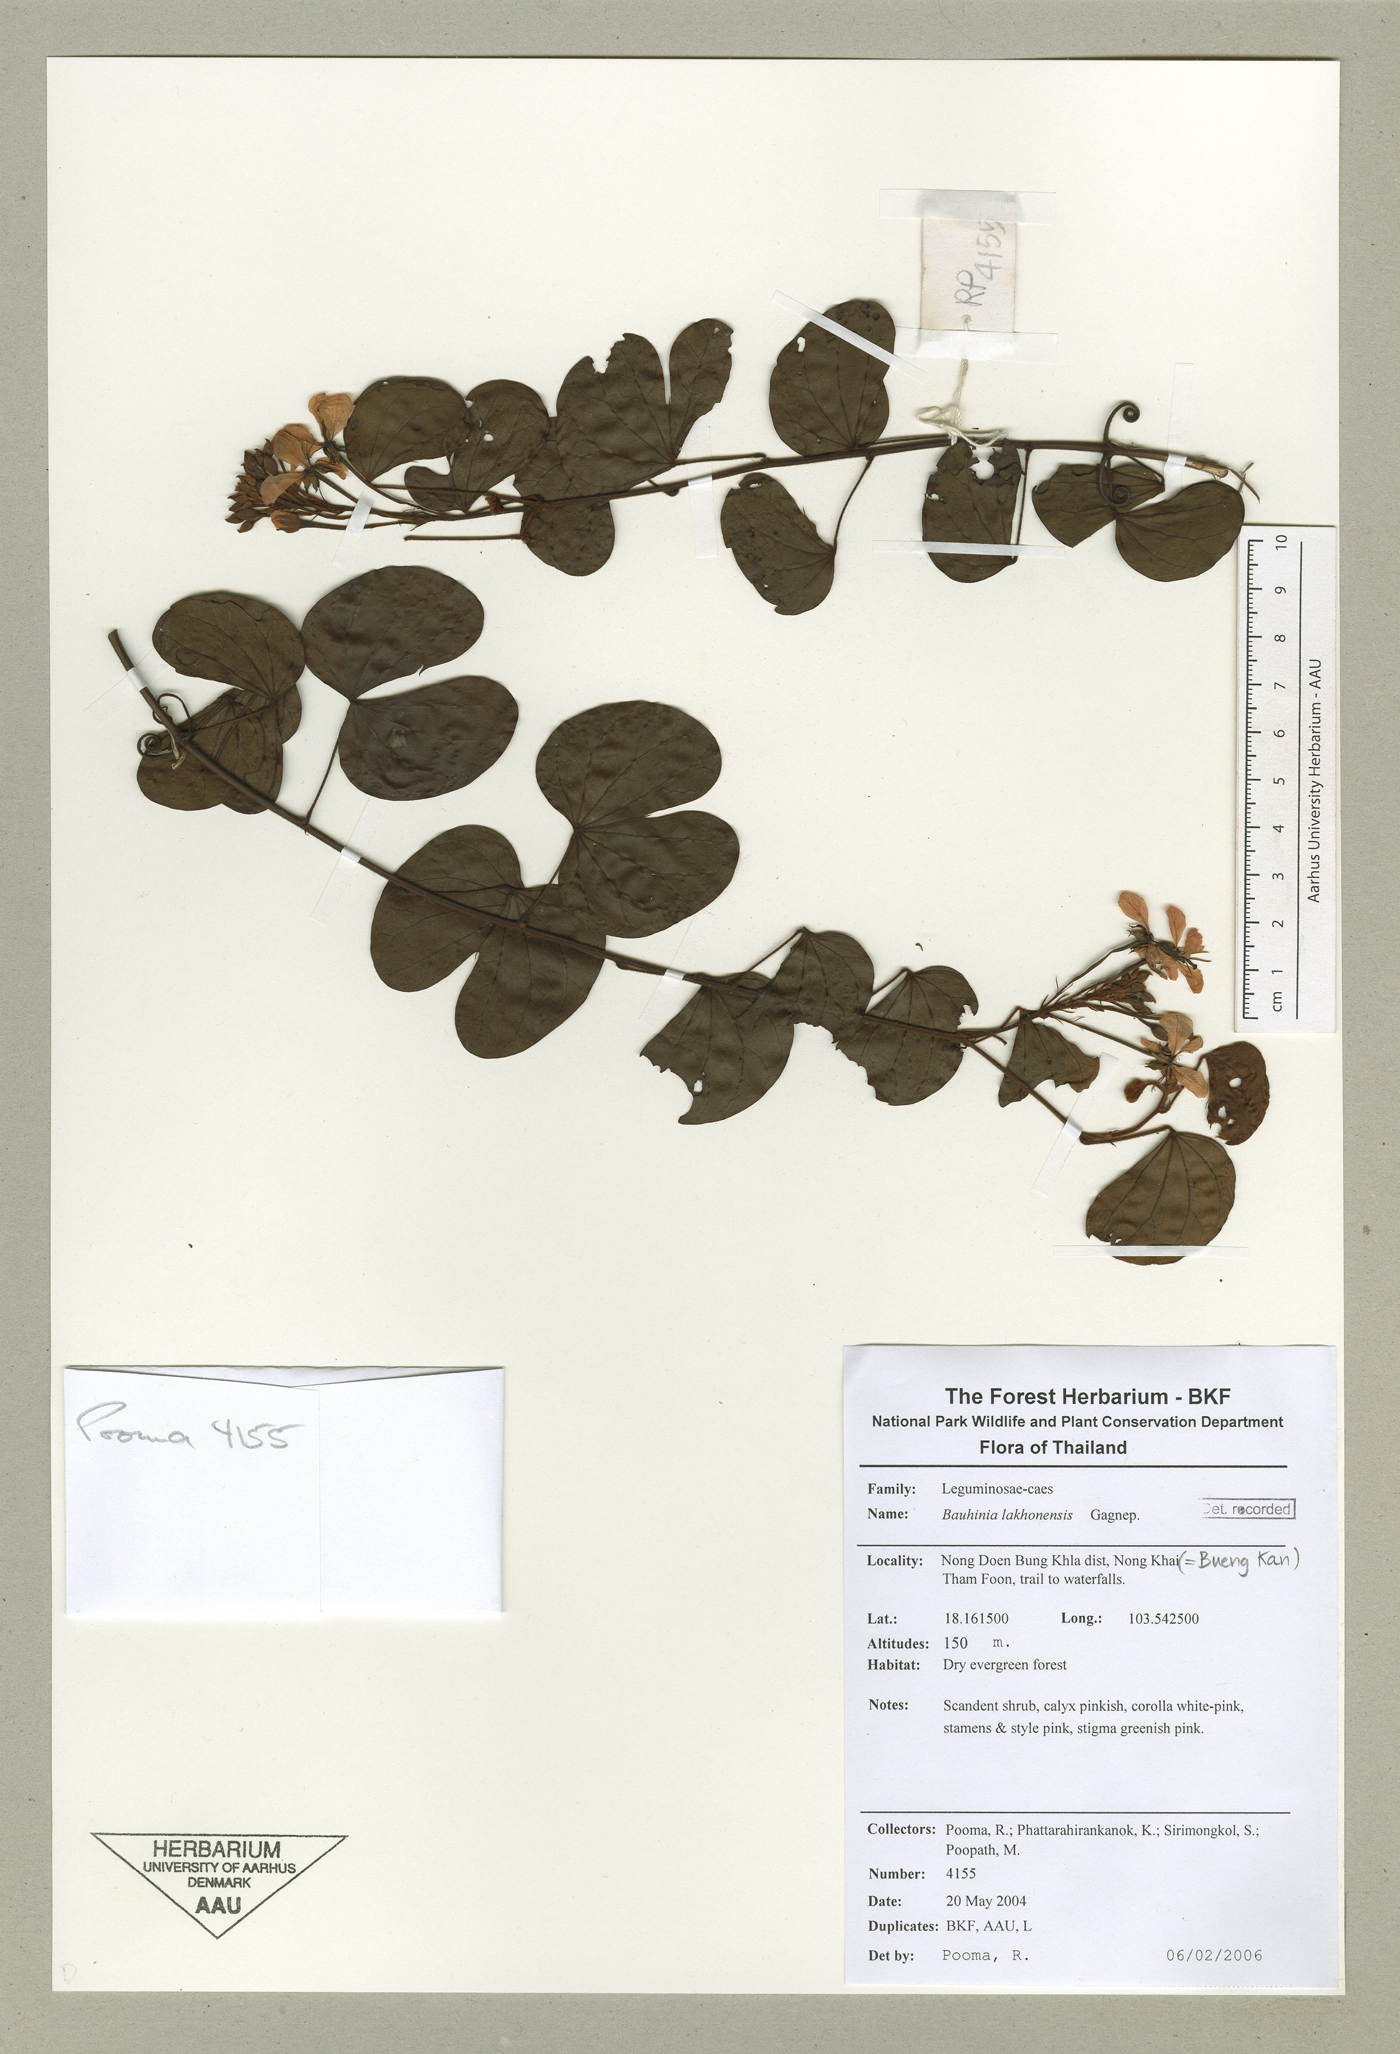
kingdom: Plantae
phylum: Tracheophyta
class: Magnoliopsida
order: Fabales
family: Fabaceae
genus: Cheniella
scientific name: Cheniella lakhonensis
